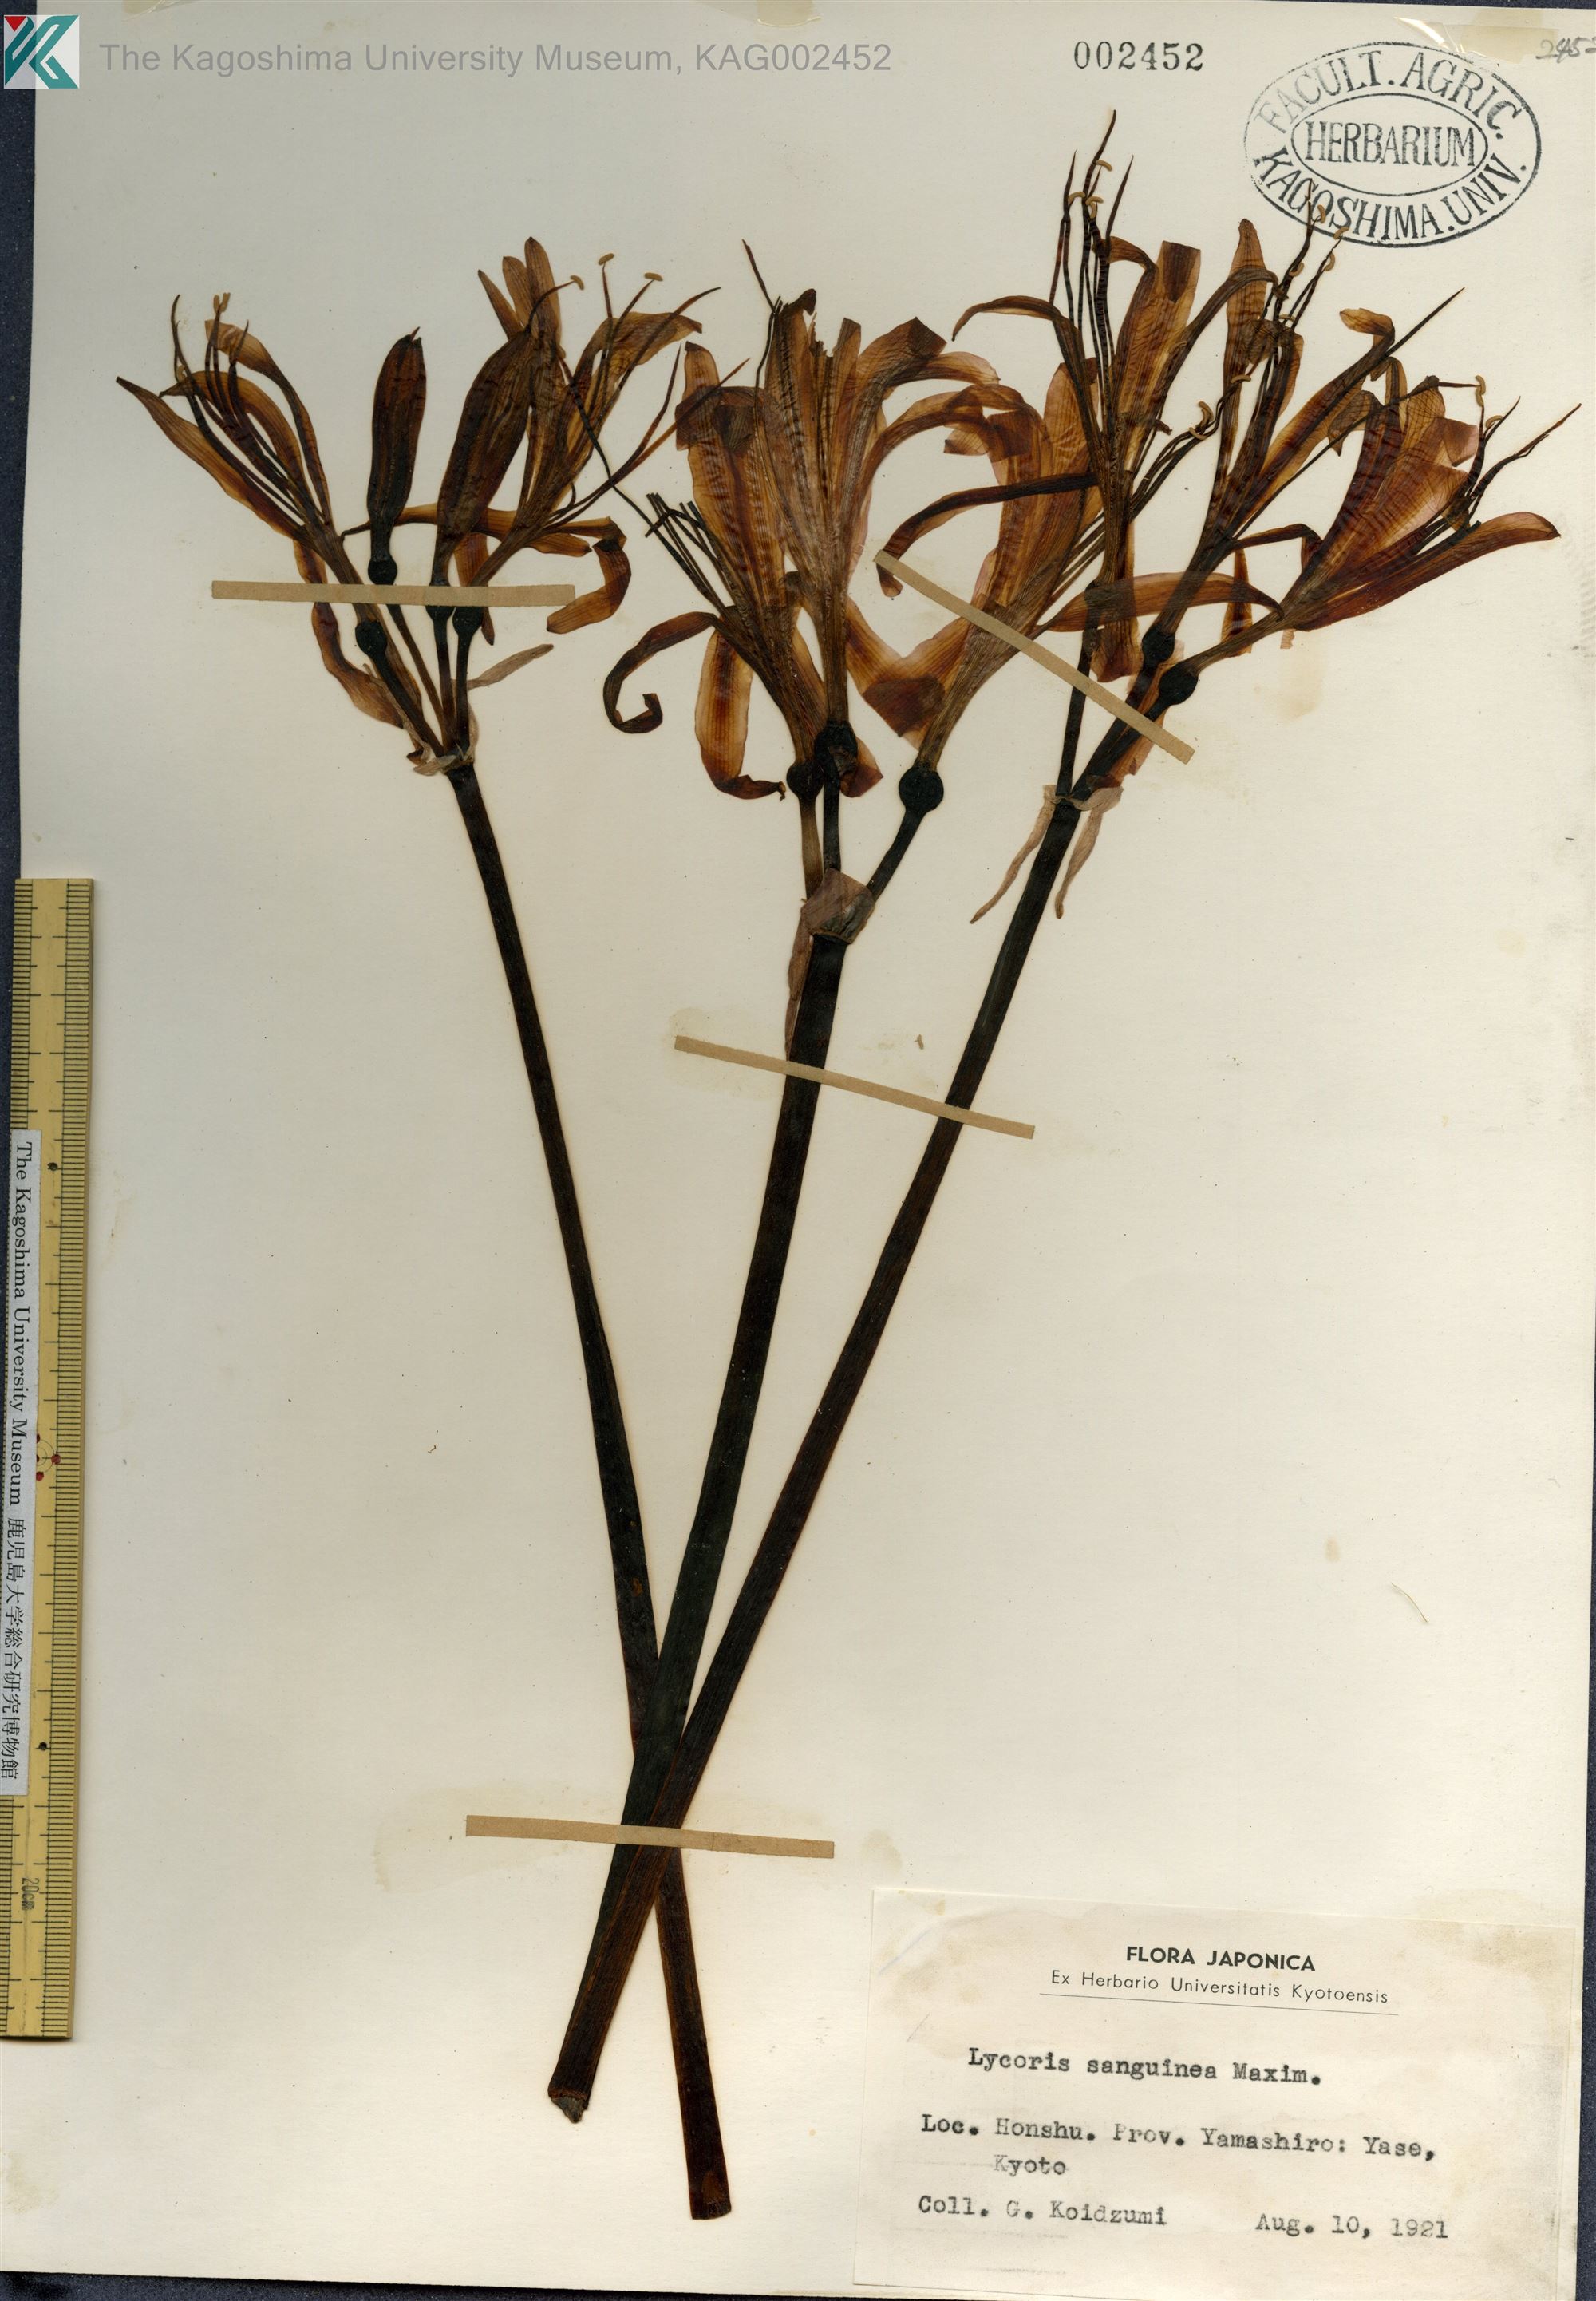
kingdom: Plantae
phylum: Tracheophyta
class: Liliopsida
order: Asparagales
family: Amaryllidaceae
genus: Lycoris
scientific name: Lycoris sanguinea
